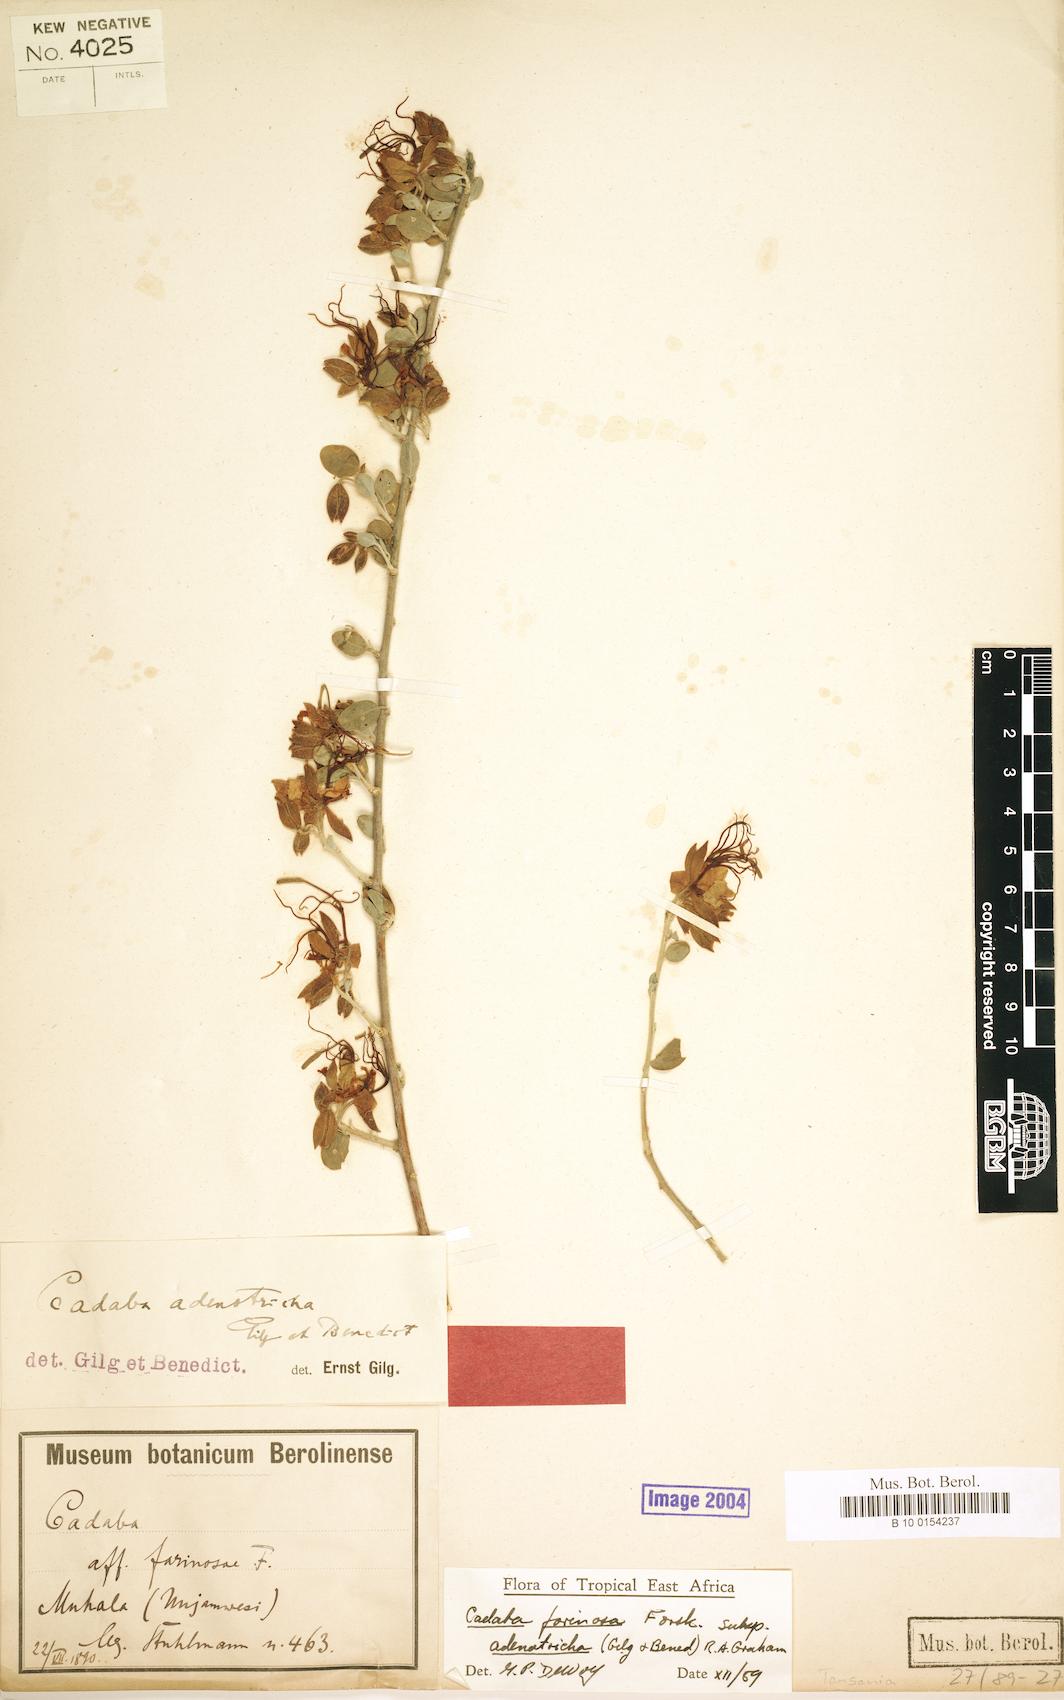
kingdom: Plantae
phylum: Tracheophyta
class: Magnoliopsida
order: Brassicales
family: Capparaceae
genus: Cadaba
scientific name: Cadaba farinosa
